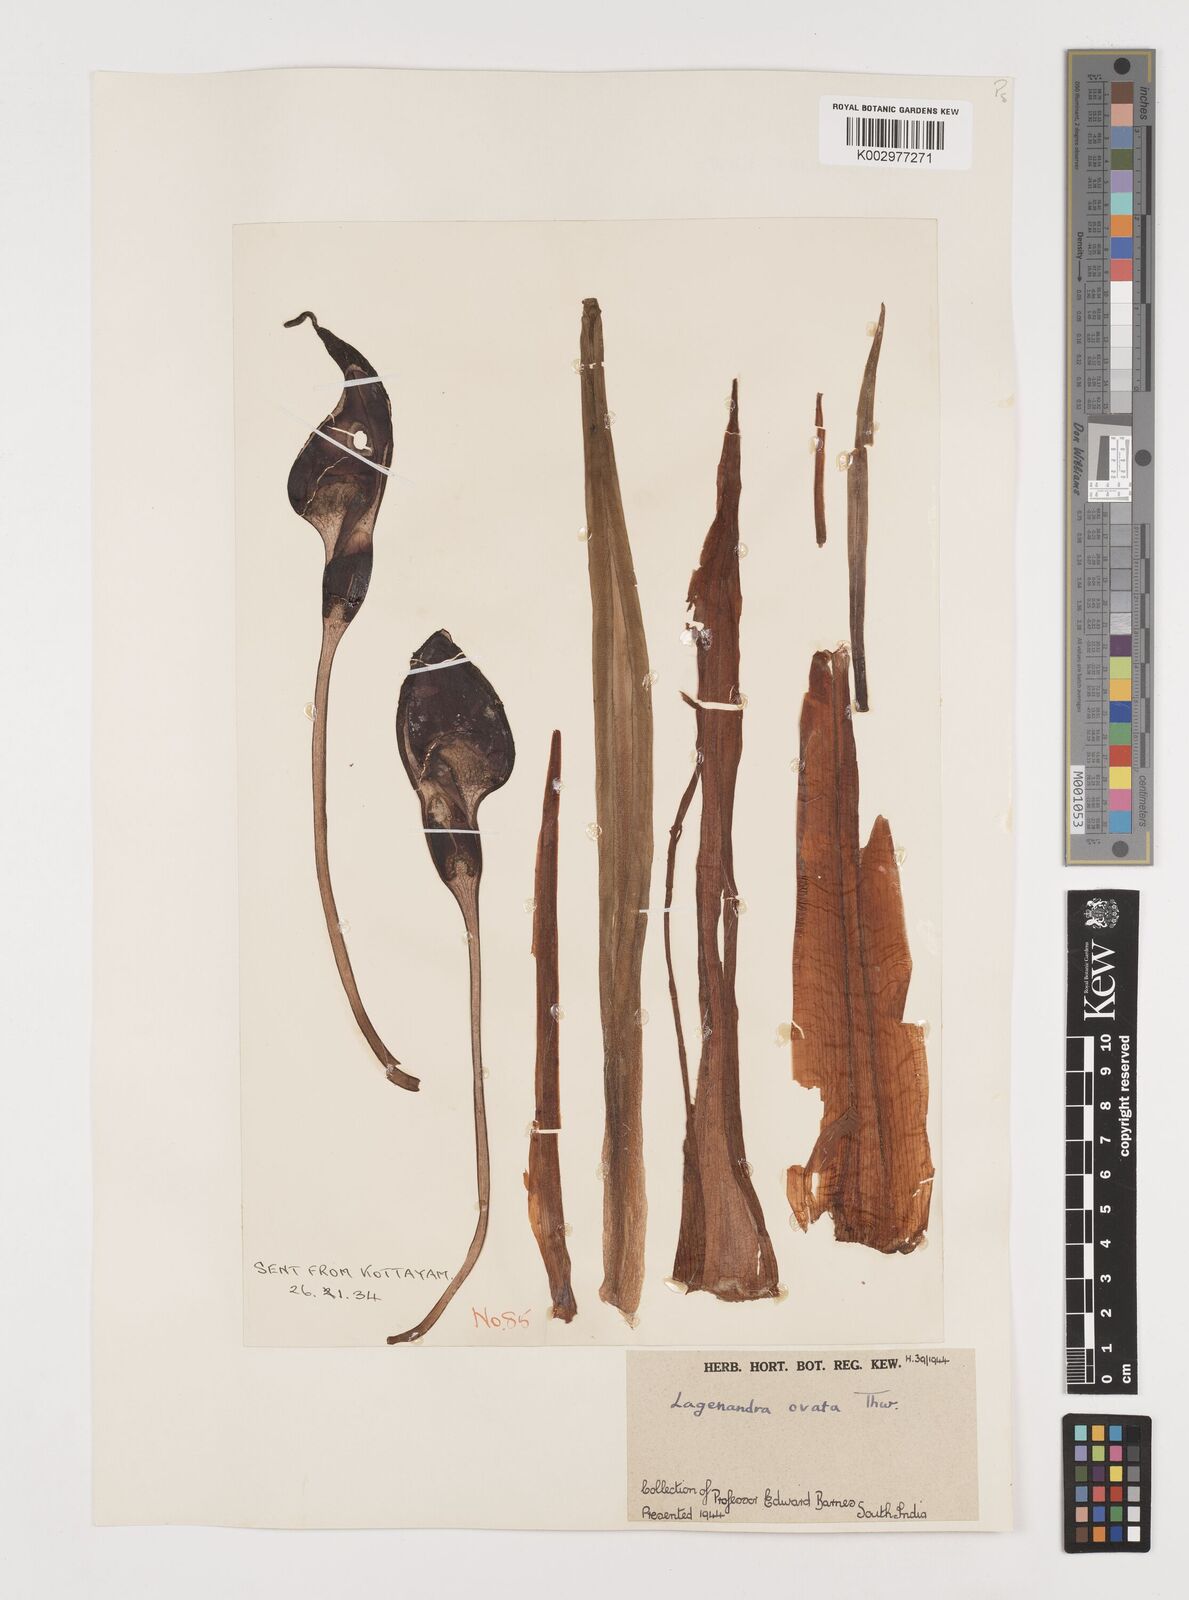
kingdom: Plantae
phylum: Tracheophyta
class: Liliopsida
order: Alismatales
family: Araceae
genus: Lagenandra
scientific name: Lagenandra ovata
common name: Malayan sword
